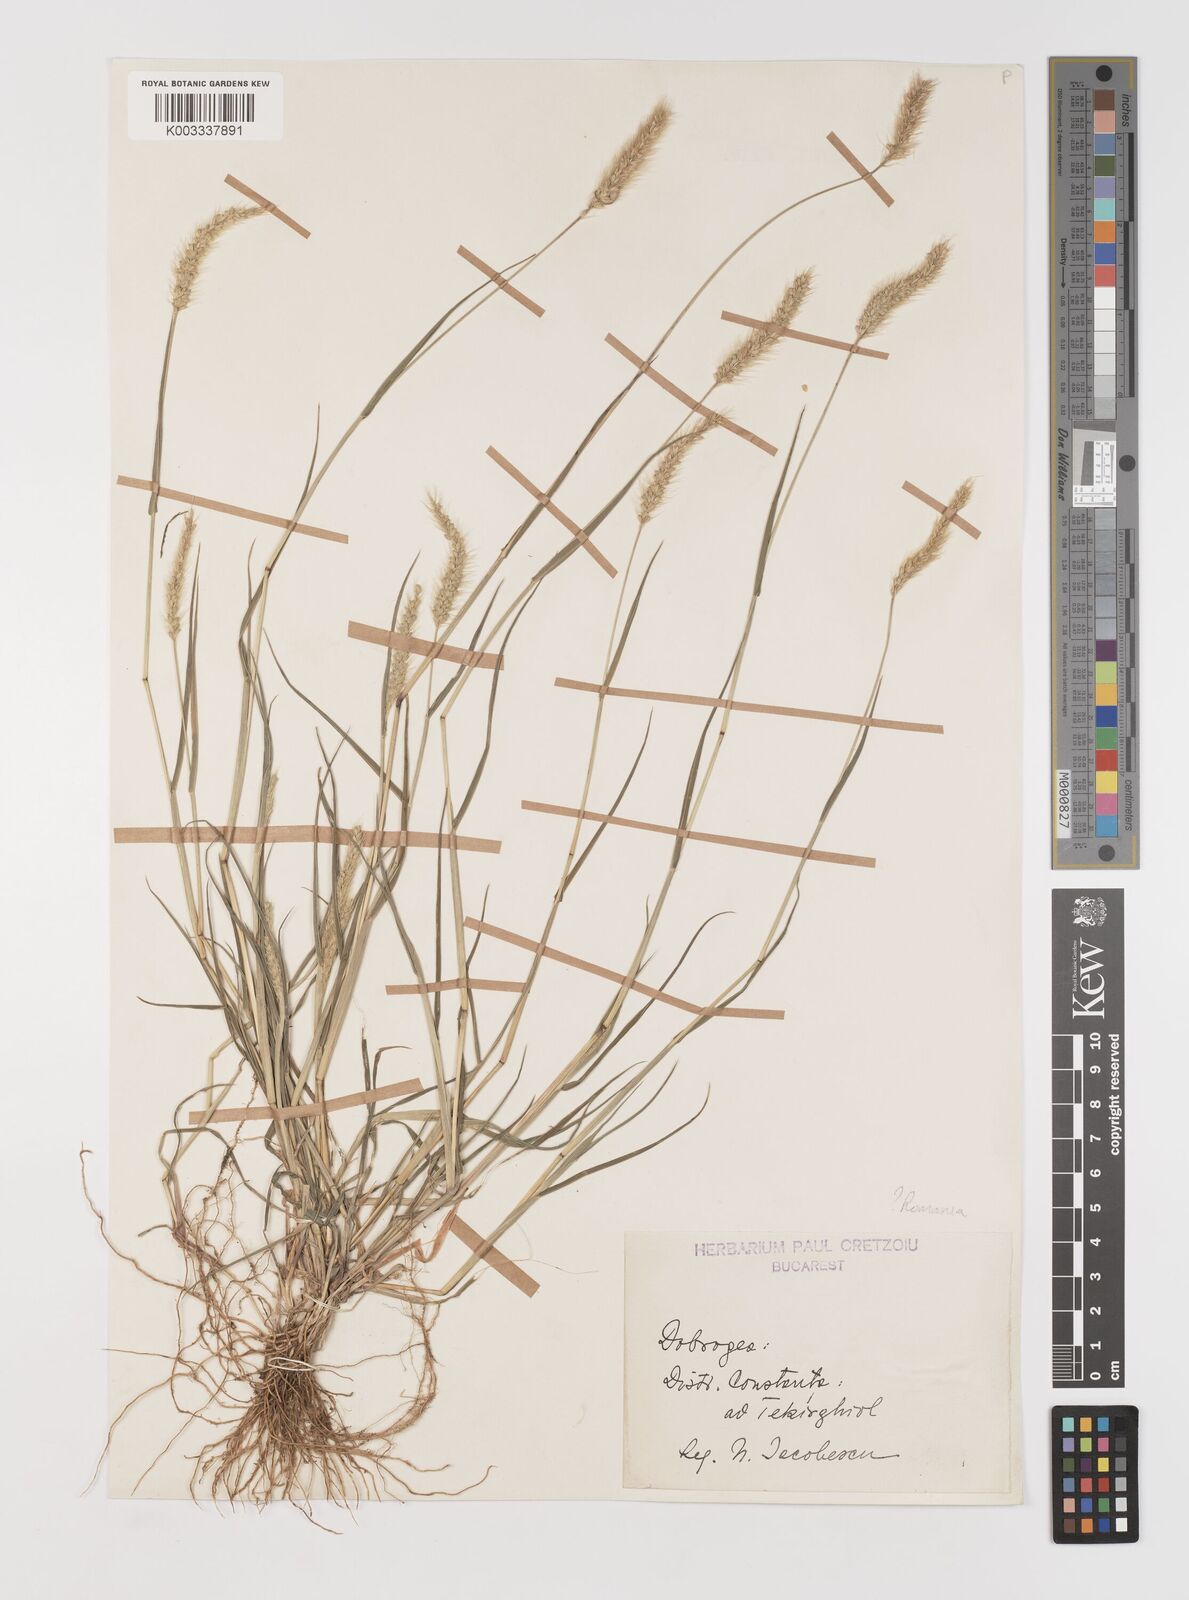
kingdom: Plantae
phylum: Tracheophyta
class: Liliopsida
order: Poales
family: Poaceae
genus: Setaria
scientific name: Setaria viridis
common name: Green bristlegrass
